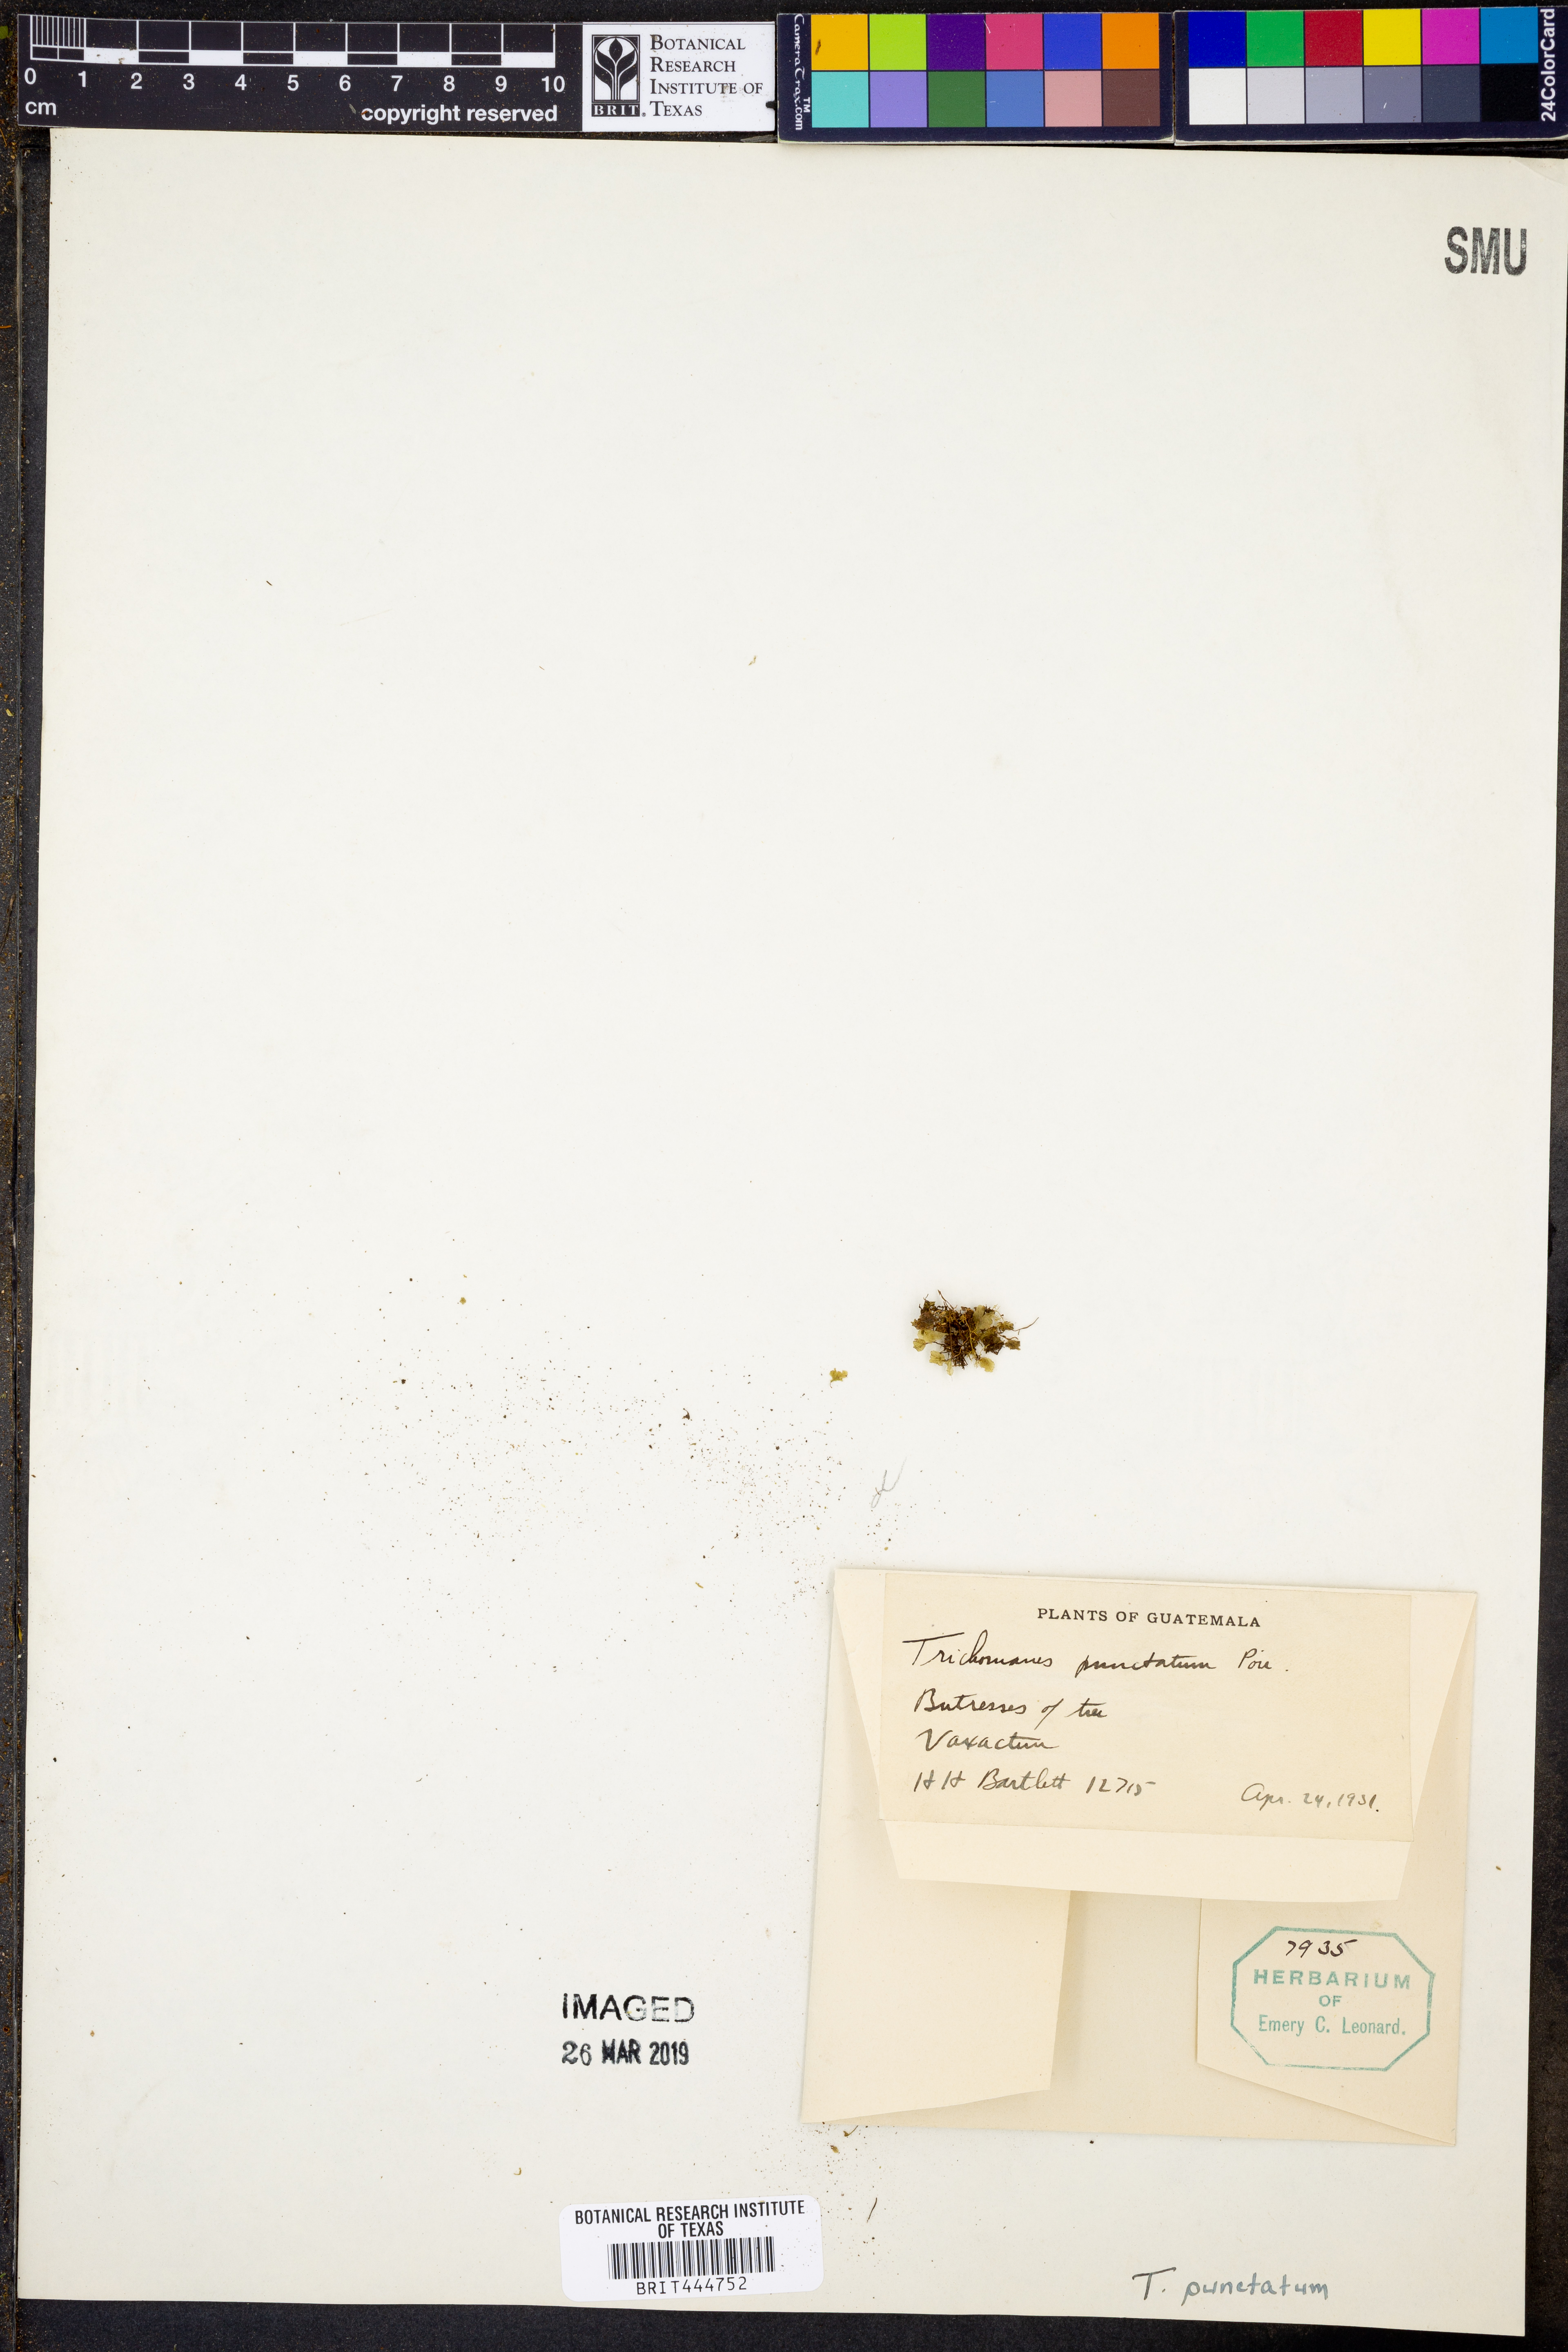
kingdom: Plantae
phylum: Tracheophyta
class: Polypodiopsida
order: Hymenophyllales
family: Hymenophyllaceae
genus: Didymoglossum
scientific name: Didymoglossum punctatum
